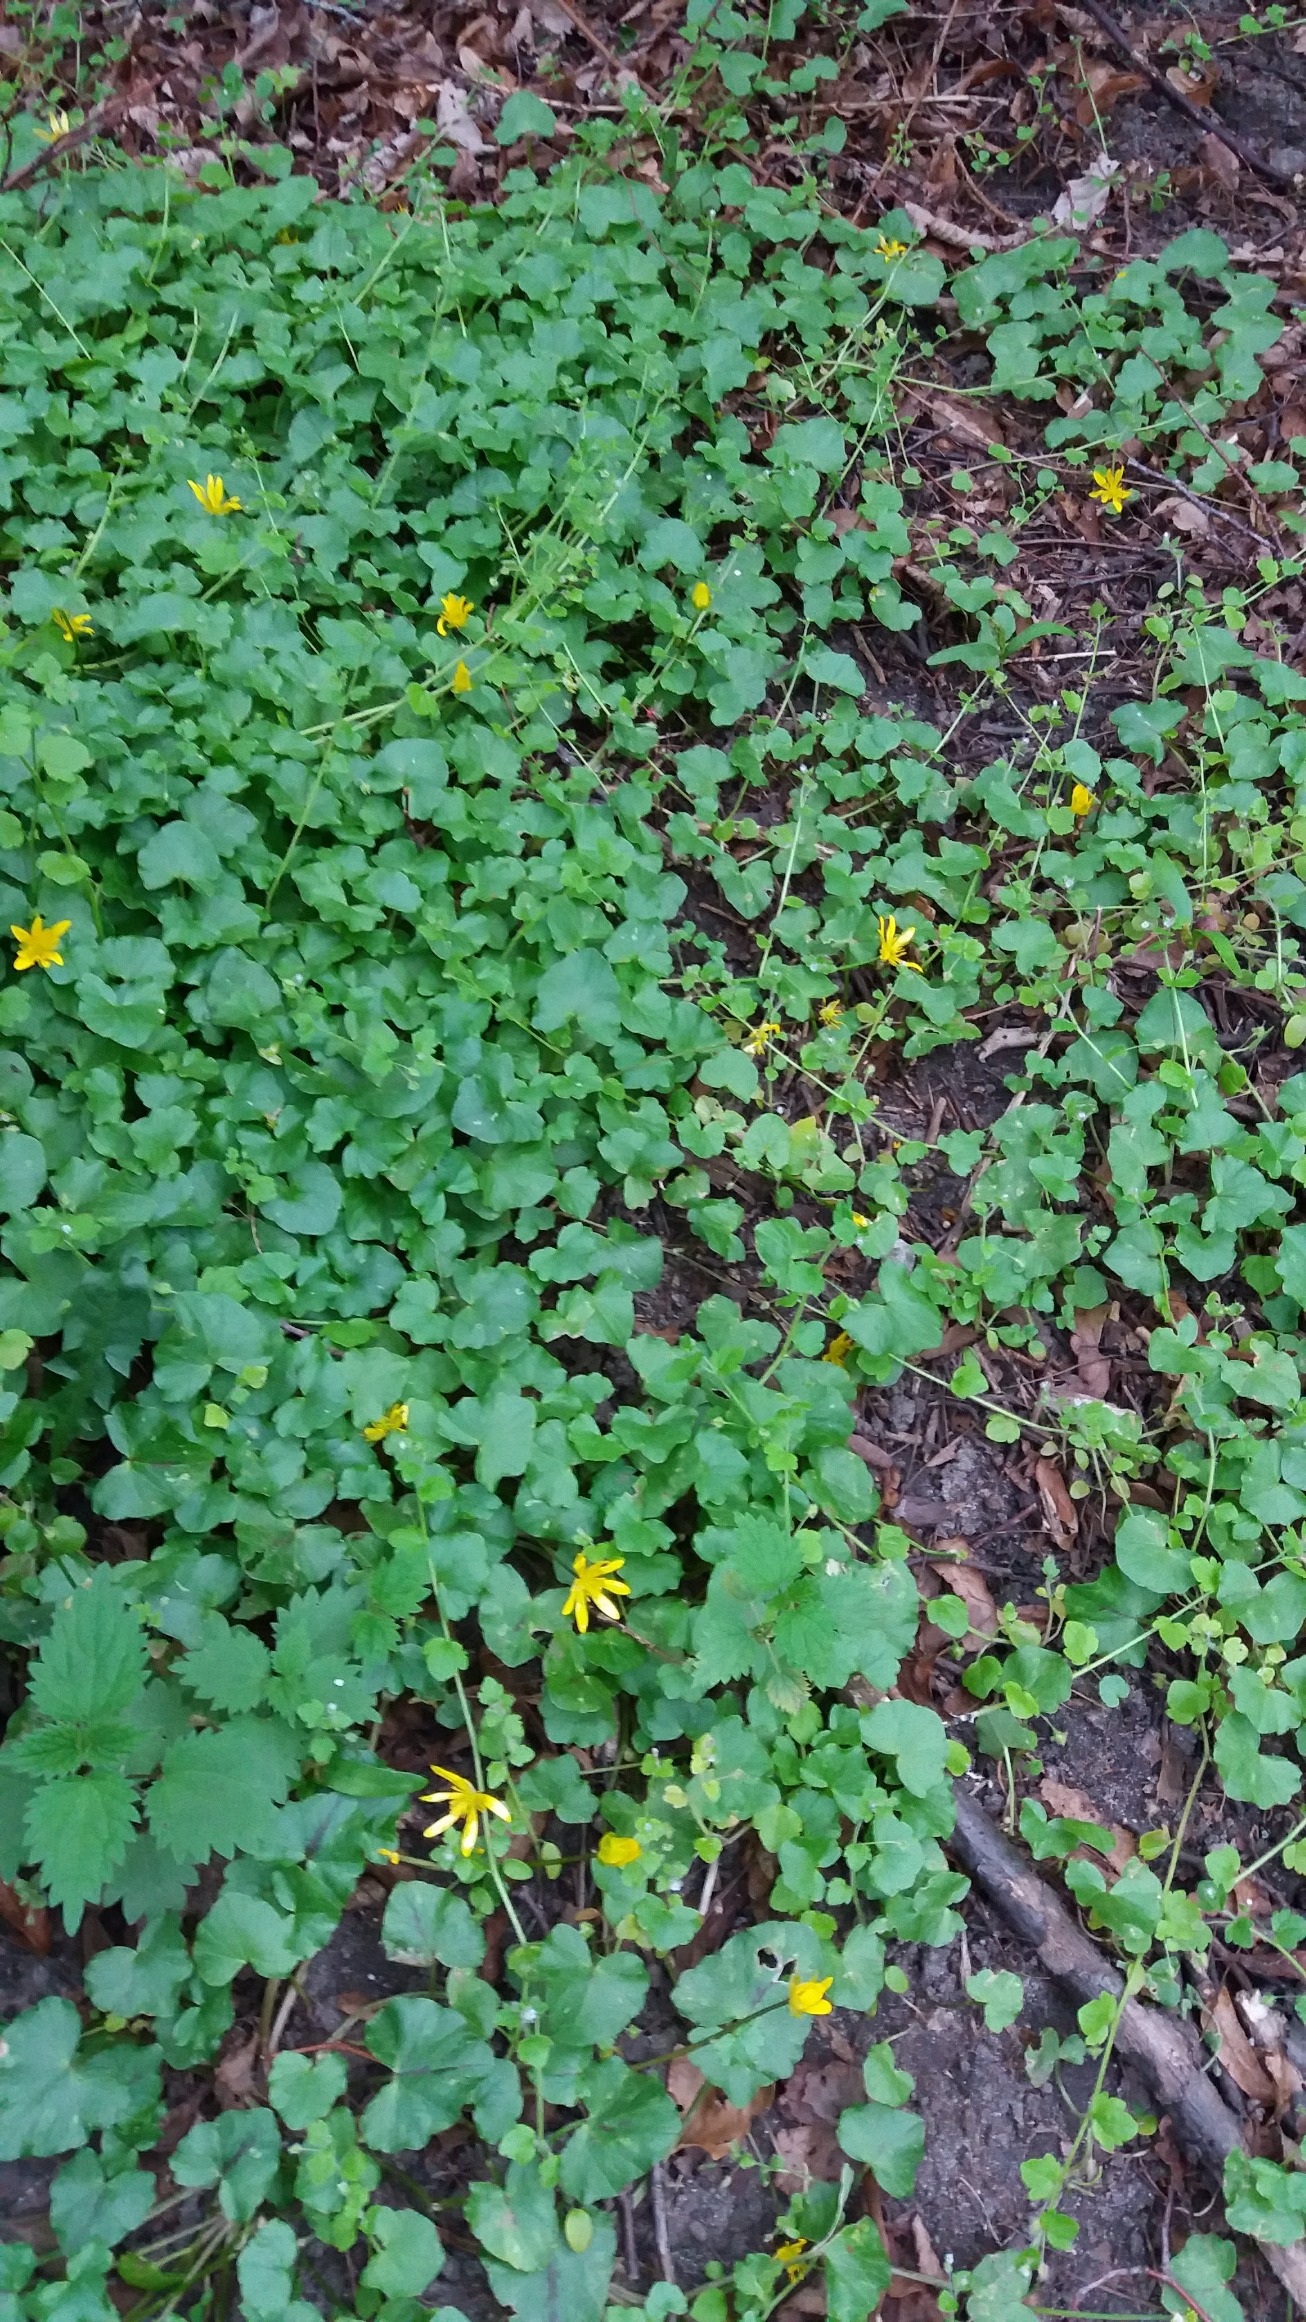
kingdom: Plantae
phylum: Tracheophyta
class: Magnoliopsida
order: Ranunculales
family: Ranunculaceae
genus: Ficaria
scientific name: Ficaria verna
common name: Vorterod
